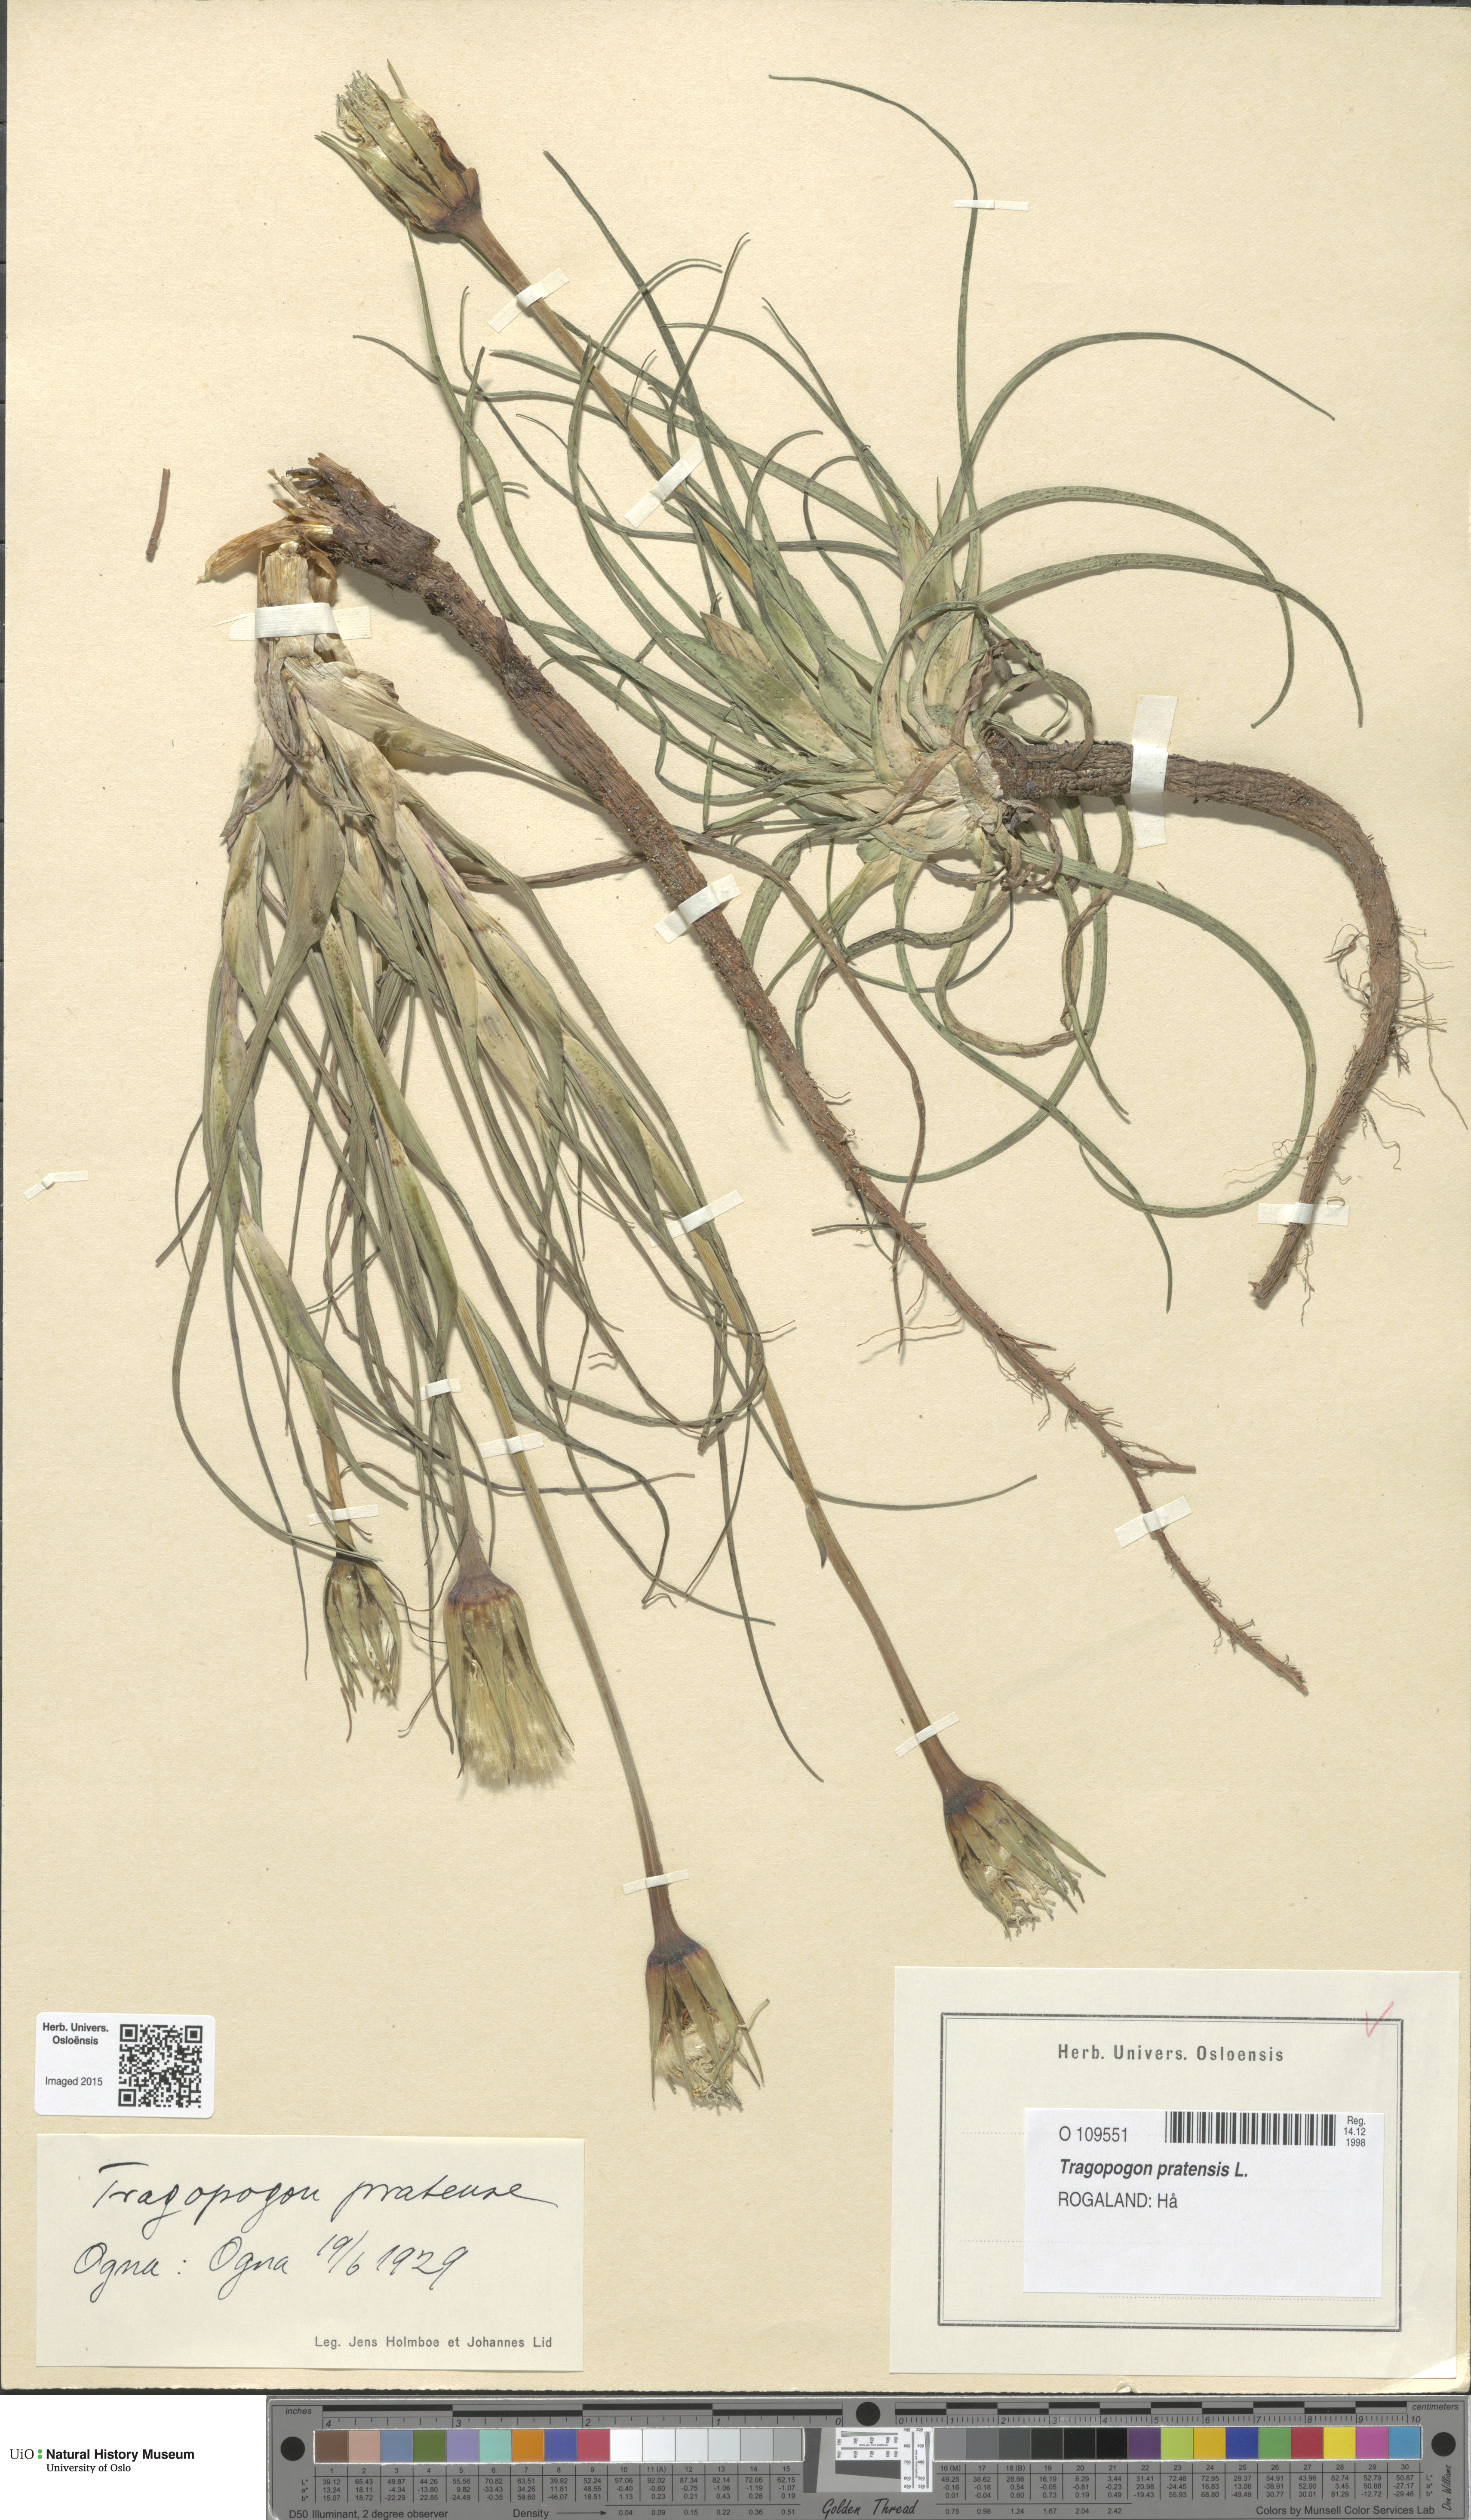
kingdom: Plantae
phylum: Tracheophyta
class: Magnoliopsida
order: Asterales
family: Asteraceae
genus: Tragopogon
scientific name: Tragopogon pratensis
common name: Goat's-beard
